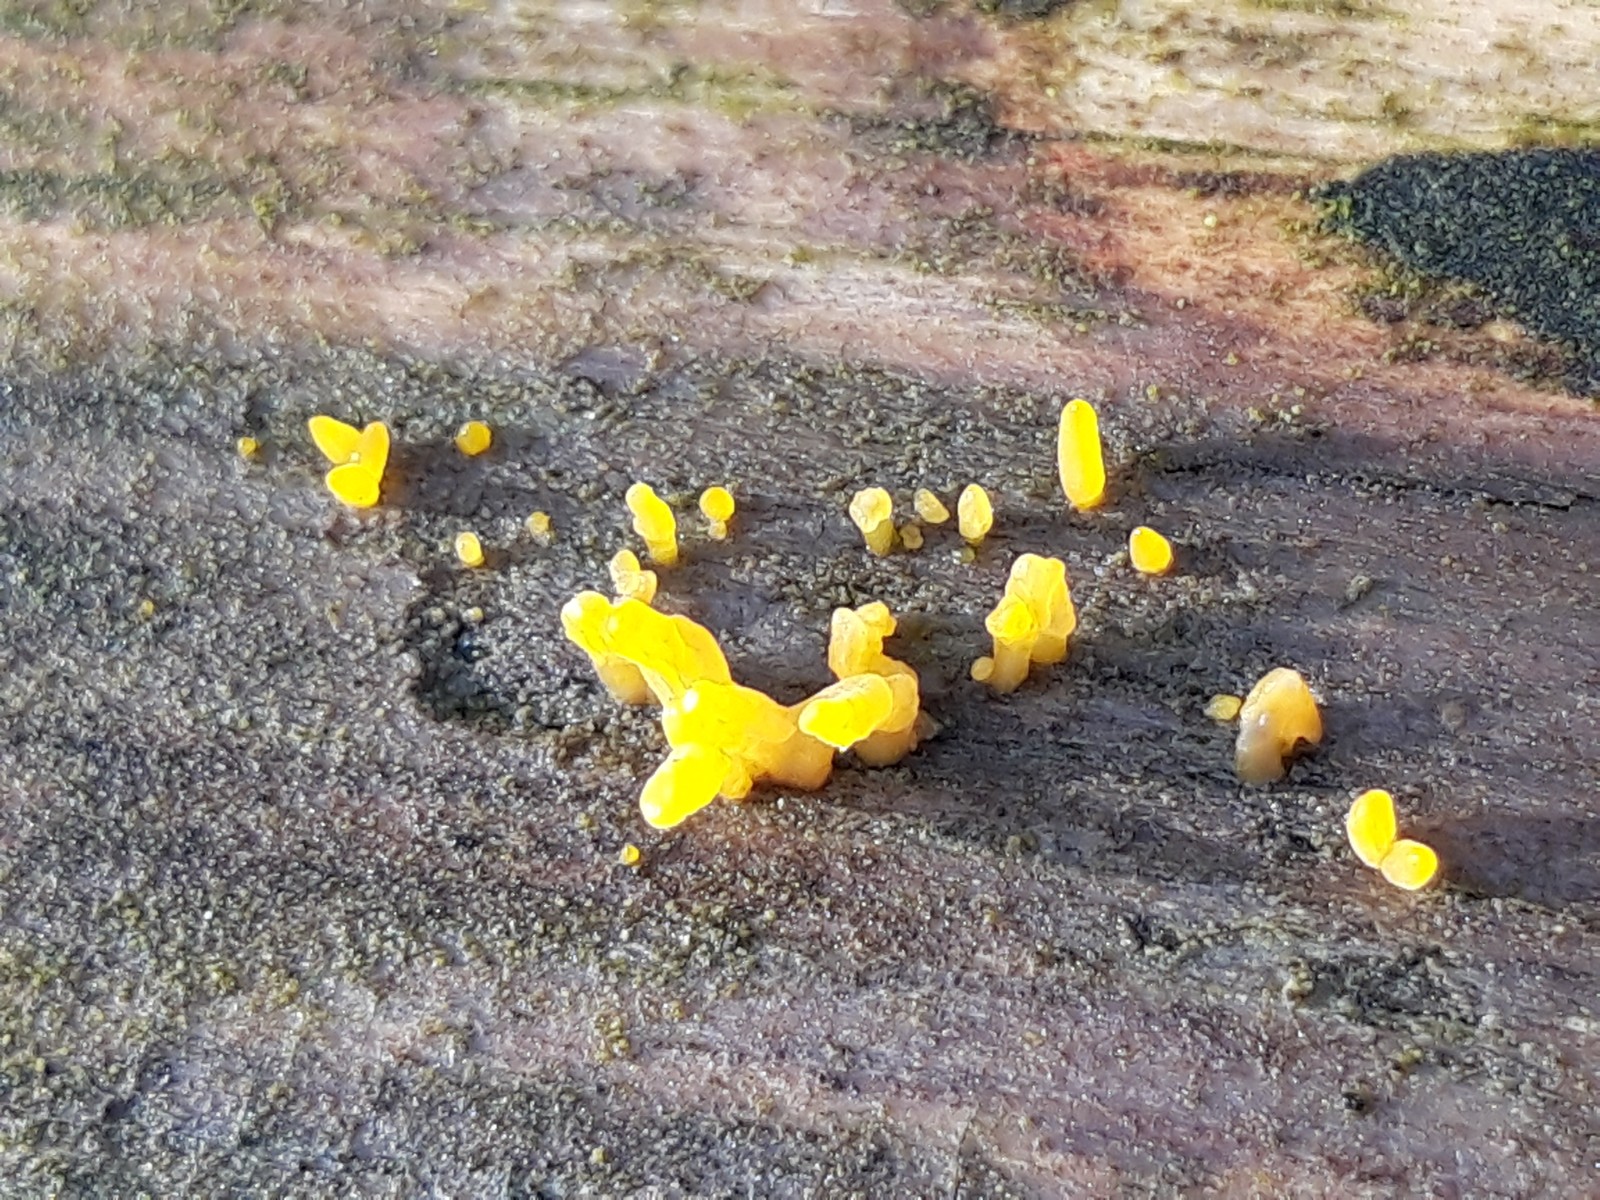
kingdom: Fungi
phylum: Basidiomycota
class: Dacrymycetes
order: Dacrymycetales
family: Dacrymycetaceae
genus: Calocera
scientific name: Calocera furcata
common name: fyrre-guldgaffel
